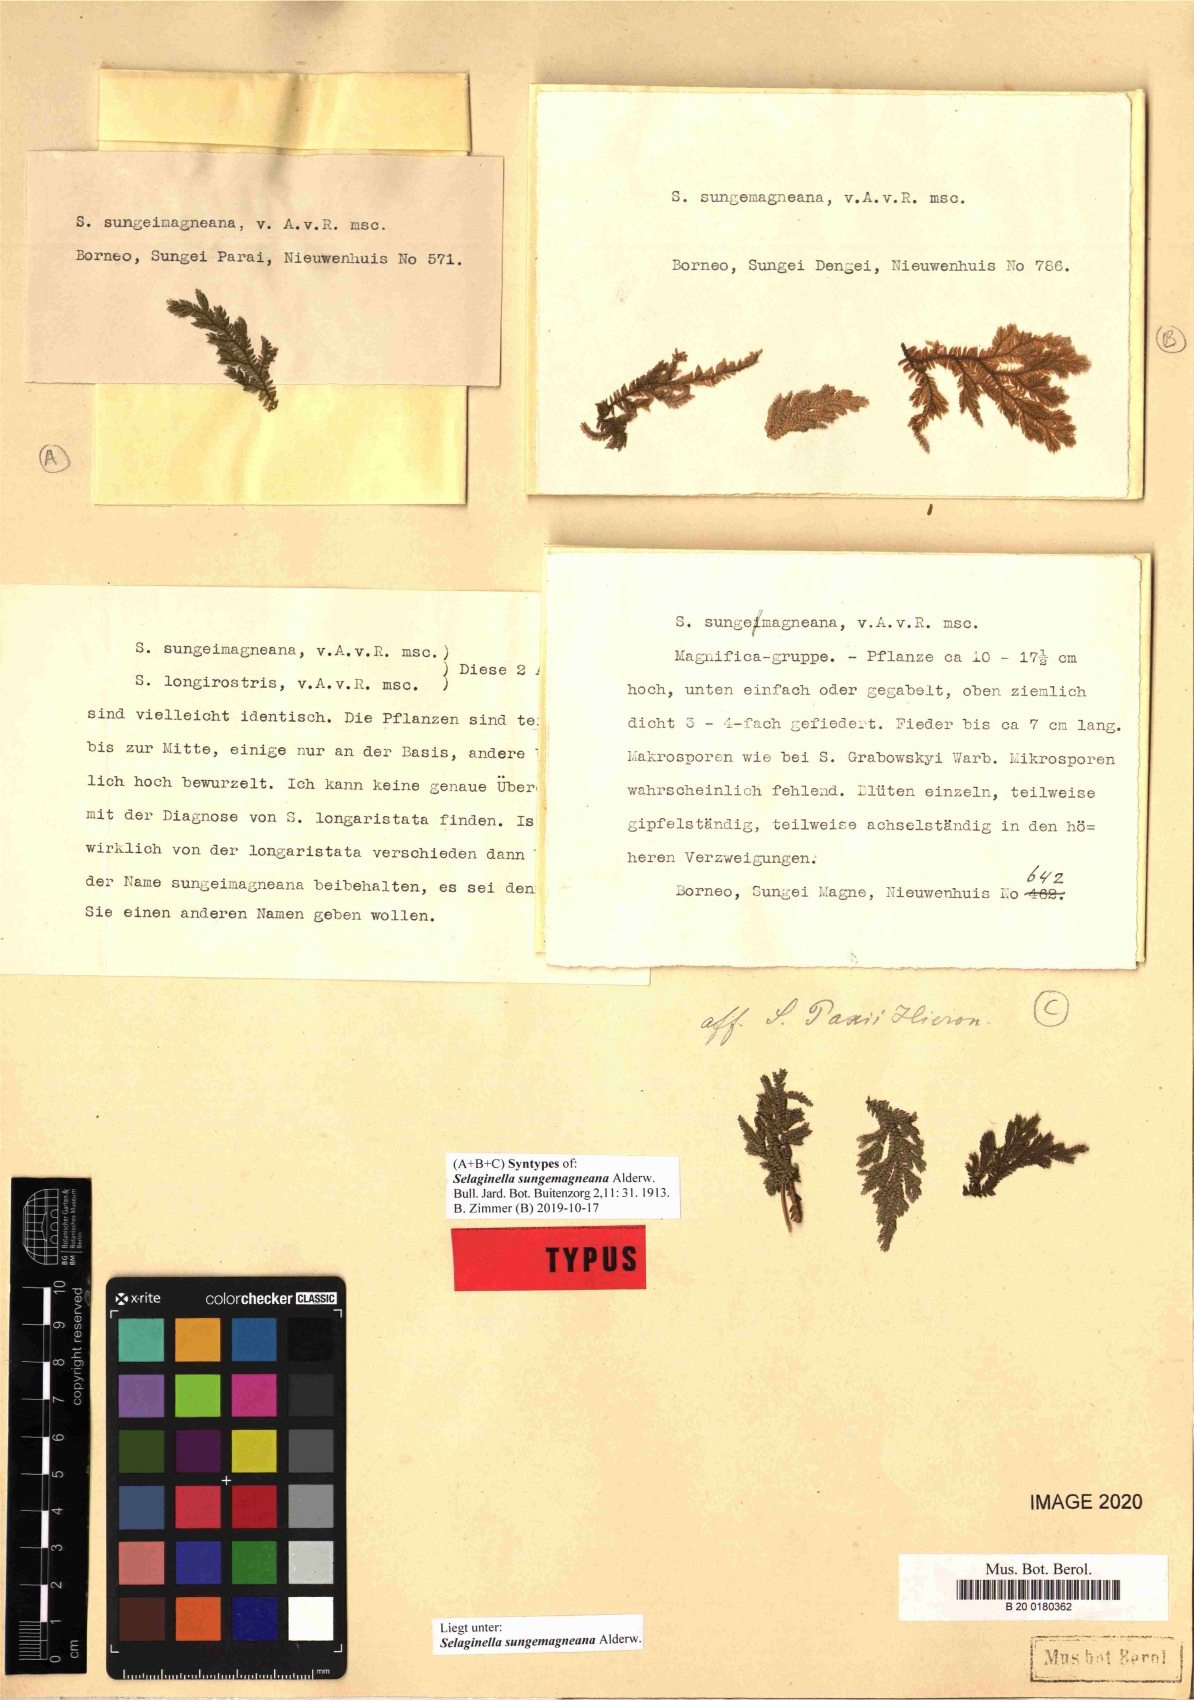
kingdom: Plantae
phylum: Tracheophyta
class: Lycopodiopsida
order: Selaginellales
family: Selaginellaceae
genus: Selaginella
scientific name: Selaginella sungemagneana
